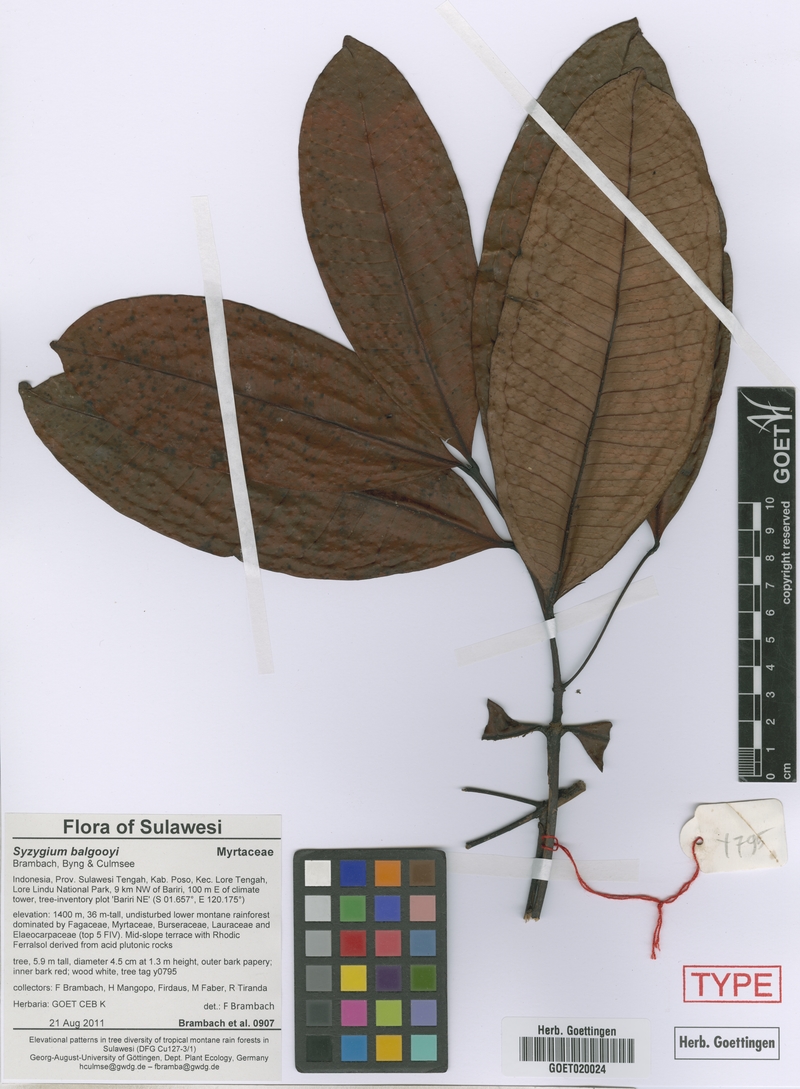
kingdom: Plantae
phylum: Tracheophyta
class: Magnoliopsida
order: Myrtales
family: Myrtaceae
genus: Syzygium
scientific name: Syzygium balgooyi
